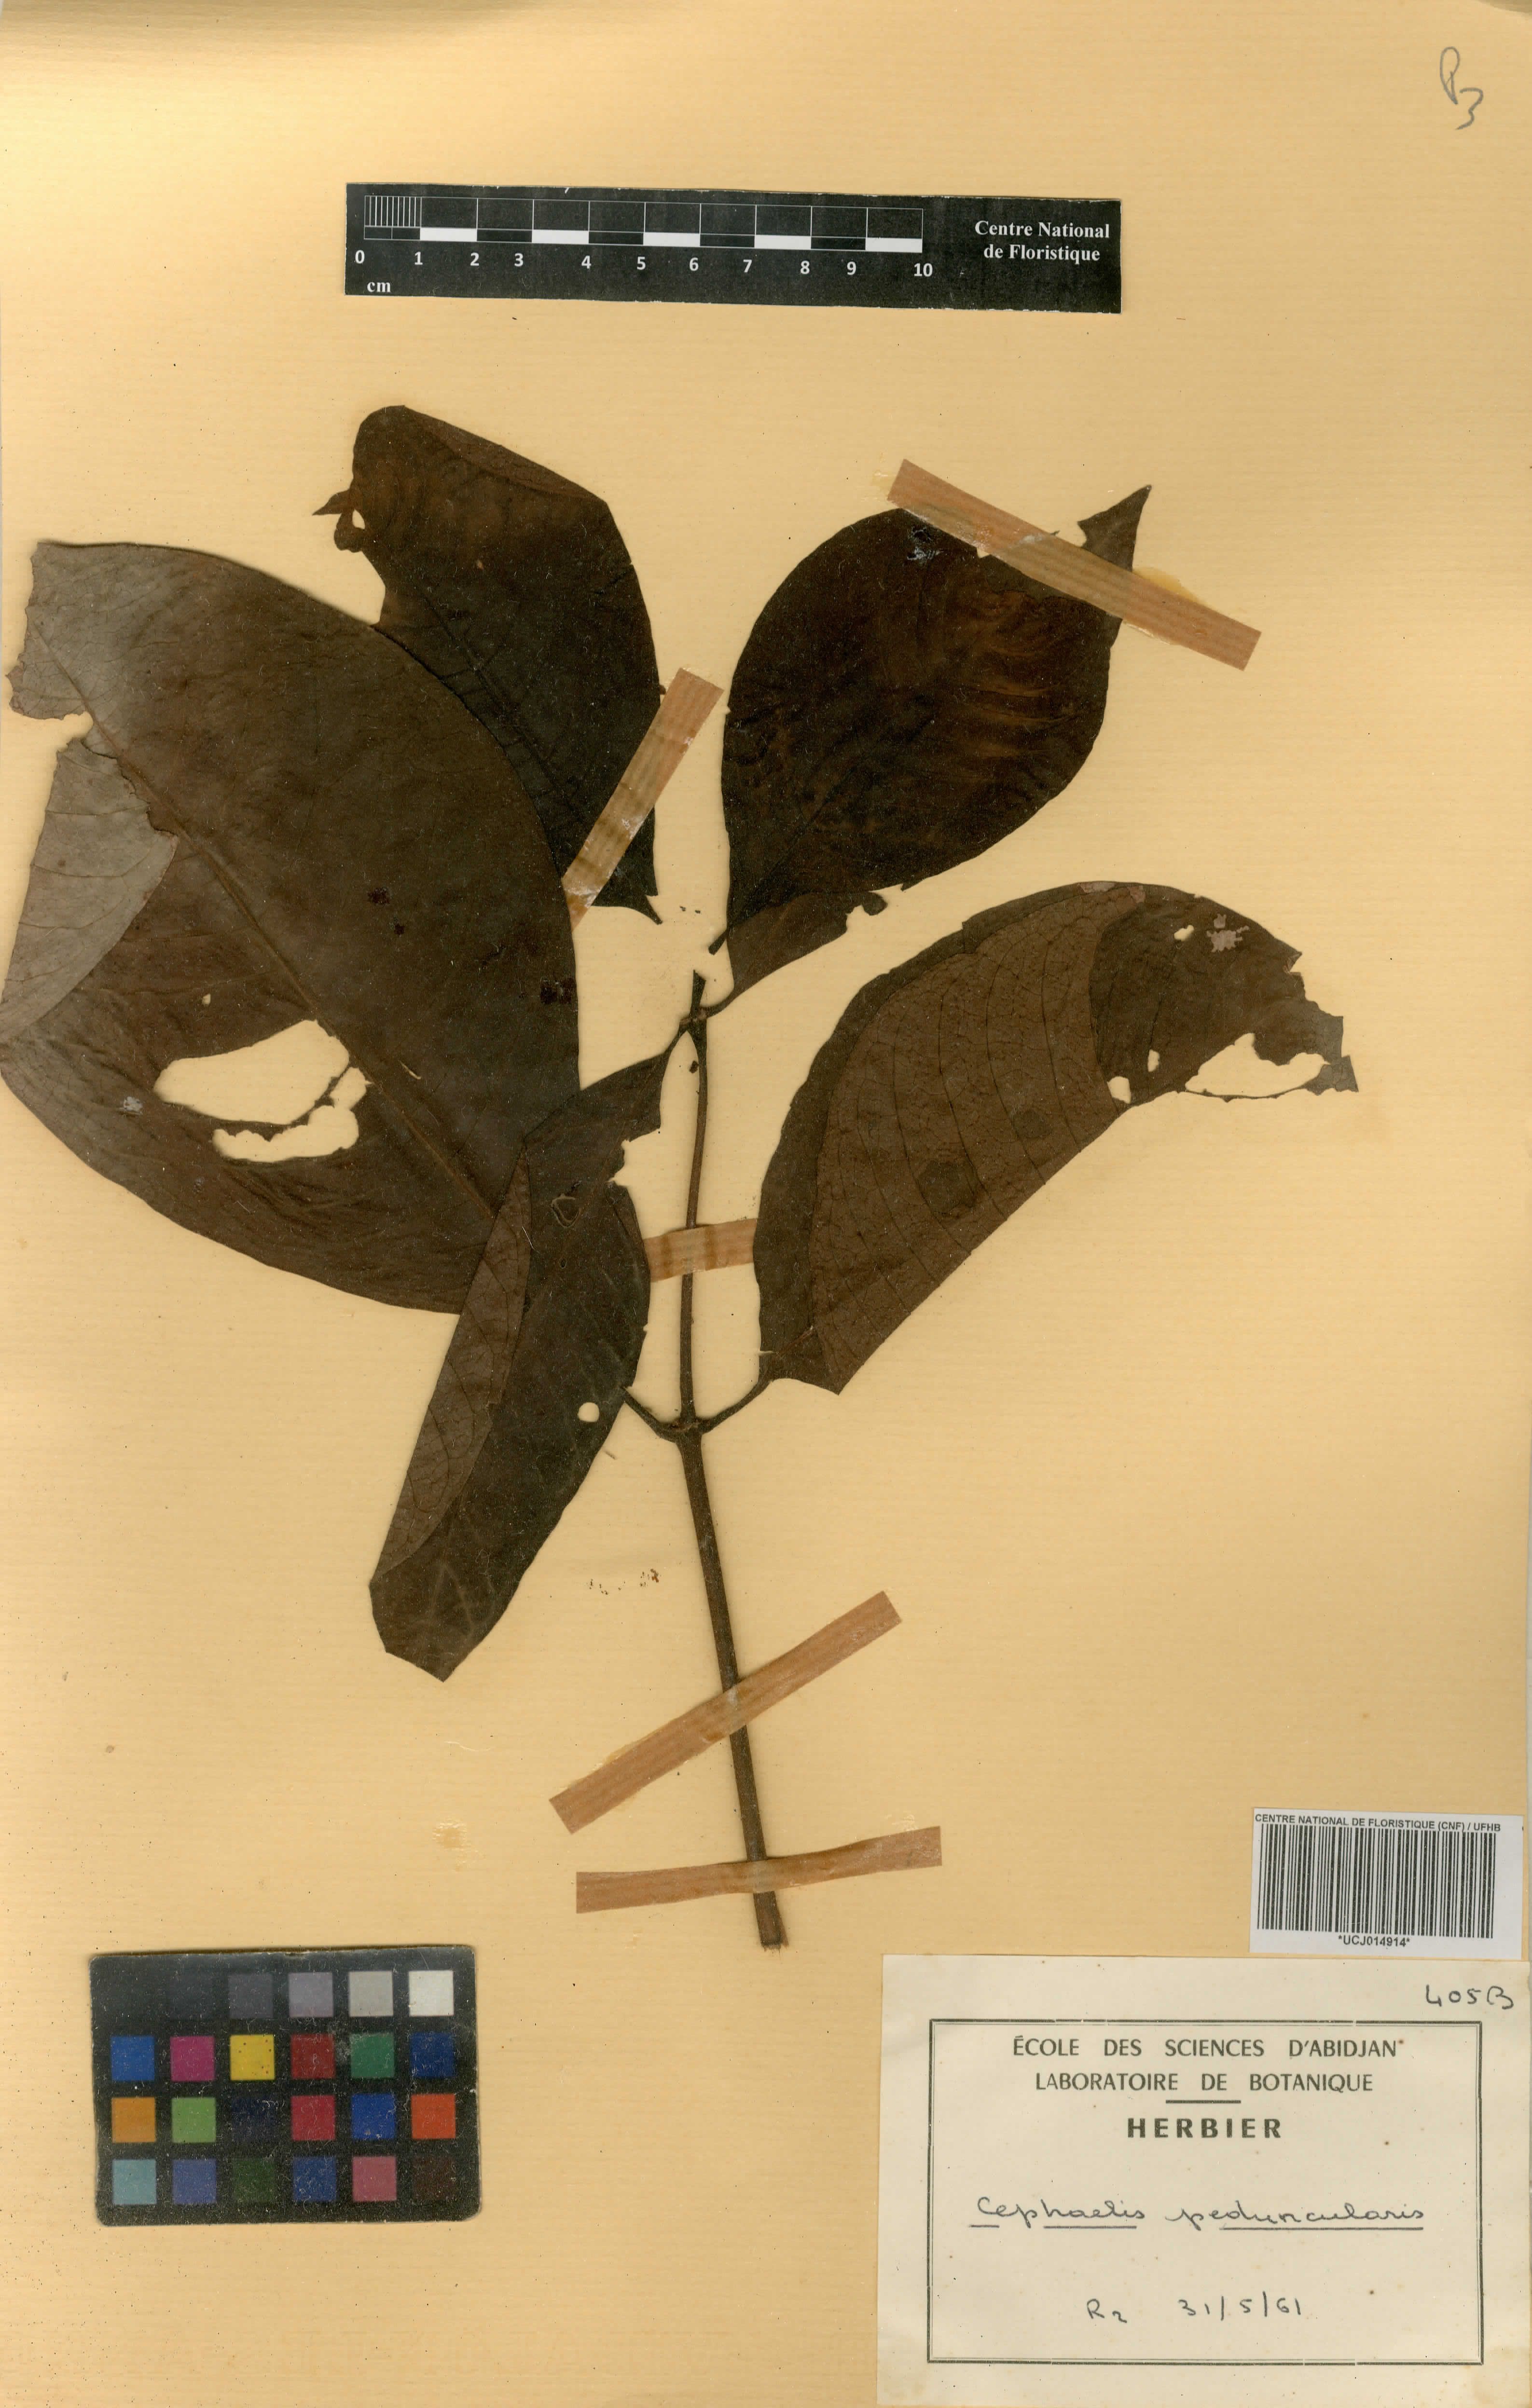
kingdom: Plantae
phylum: Tracheophyta
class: Magnoliopsida
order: Gentianales
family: Rubiaceae
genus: Psychotria
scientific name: Psychotria peduncularis
